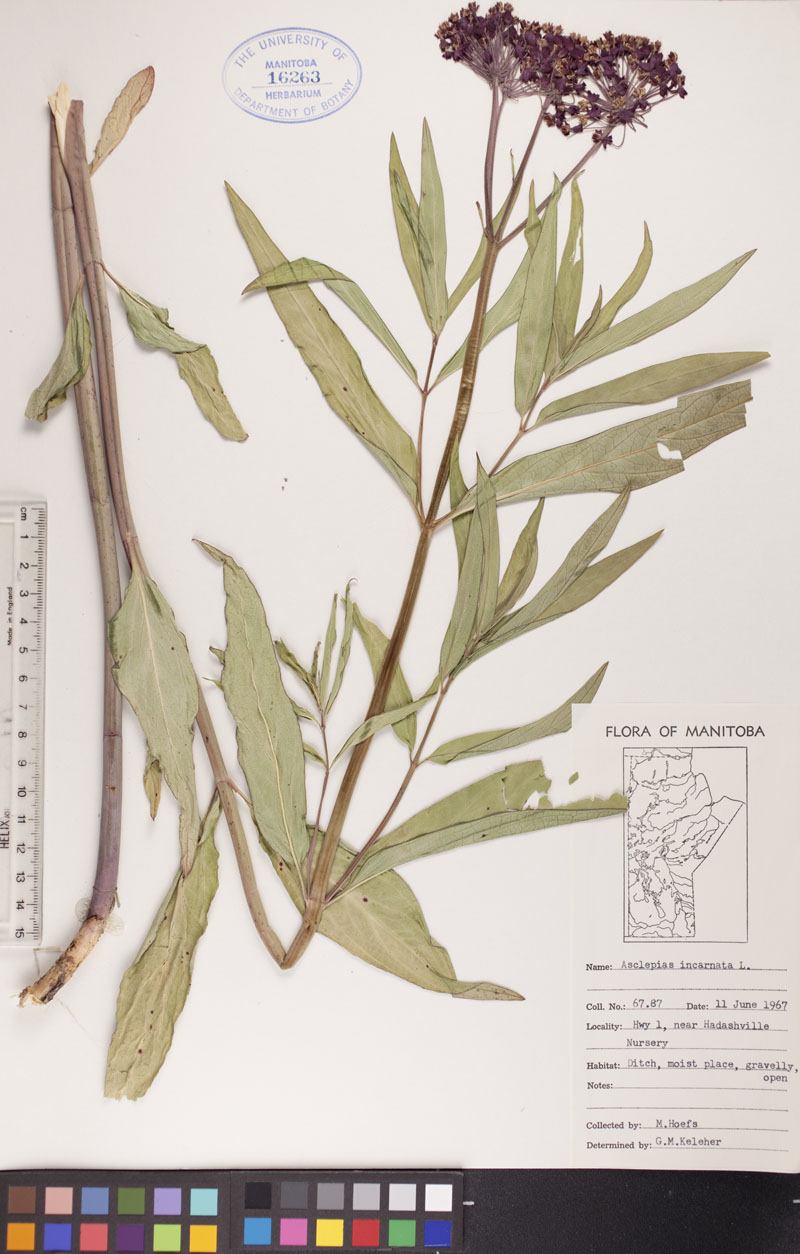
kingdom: Plantae
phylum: Tracheophyta
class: Magnoliopsida
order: Gentianales
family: Apocynaceae
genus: Asclepias
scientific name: Asclepias incarnata
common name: Swamp milkweed
